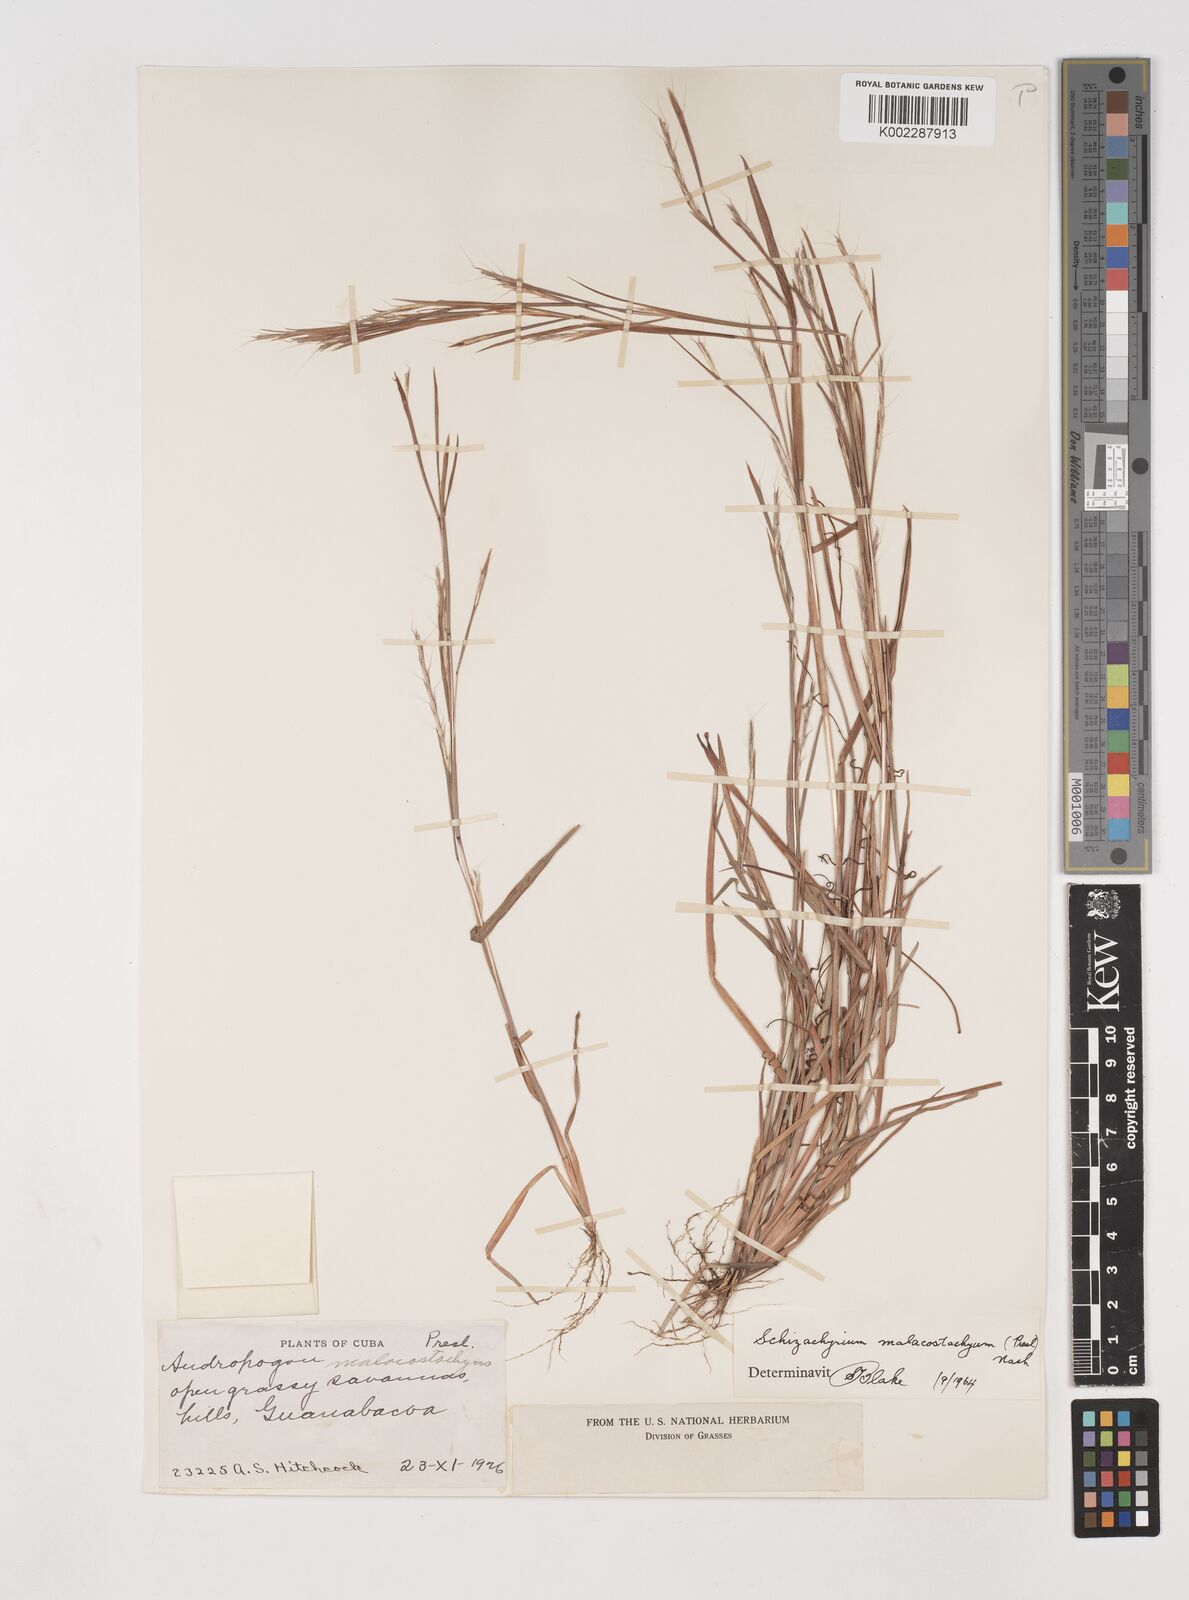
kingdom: Plantae
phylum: Tracheophyta
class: Liliopsida
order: Poales
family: Poaceae
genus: Schizachyrium
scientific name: Schizachyrium malacostachyum
